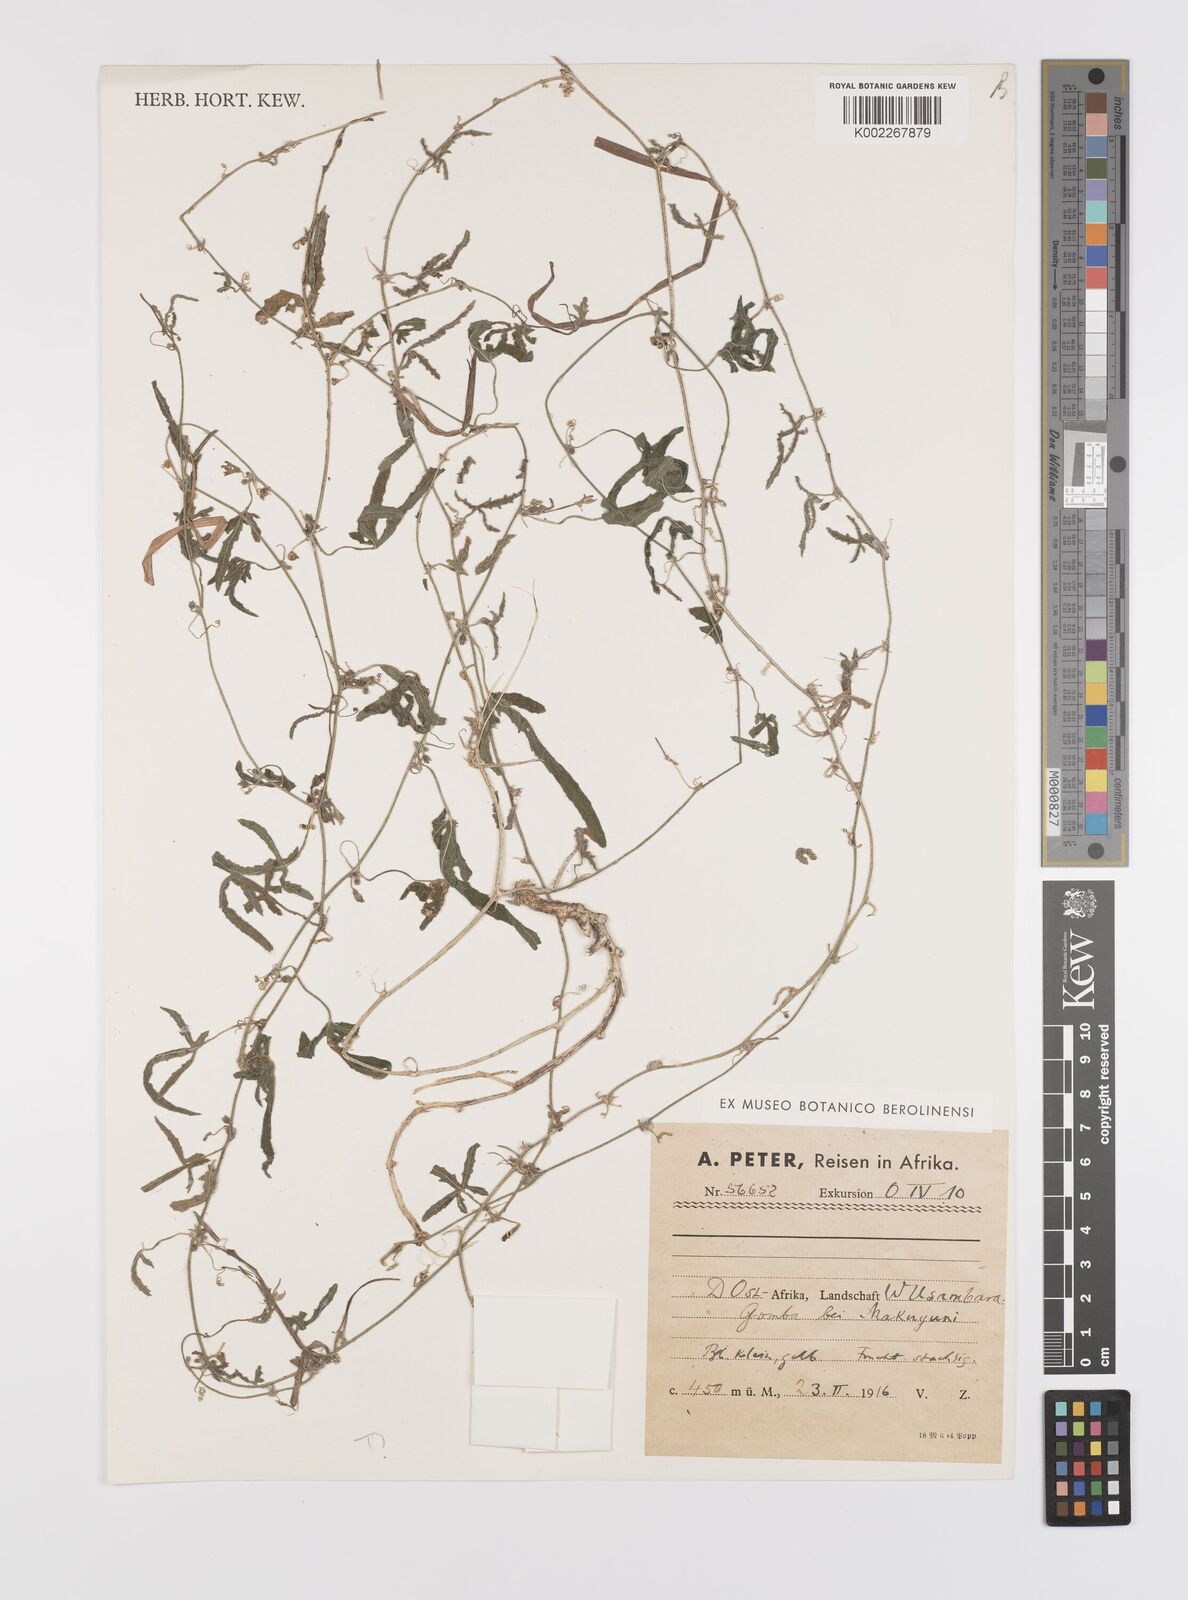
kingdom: Plantae
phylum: Tracheophyta
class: Magnoliopsida
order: Cucurbitales
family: Cucurbitaceae
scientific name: Cucurbitaceae
